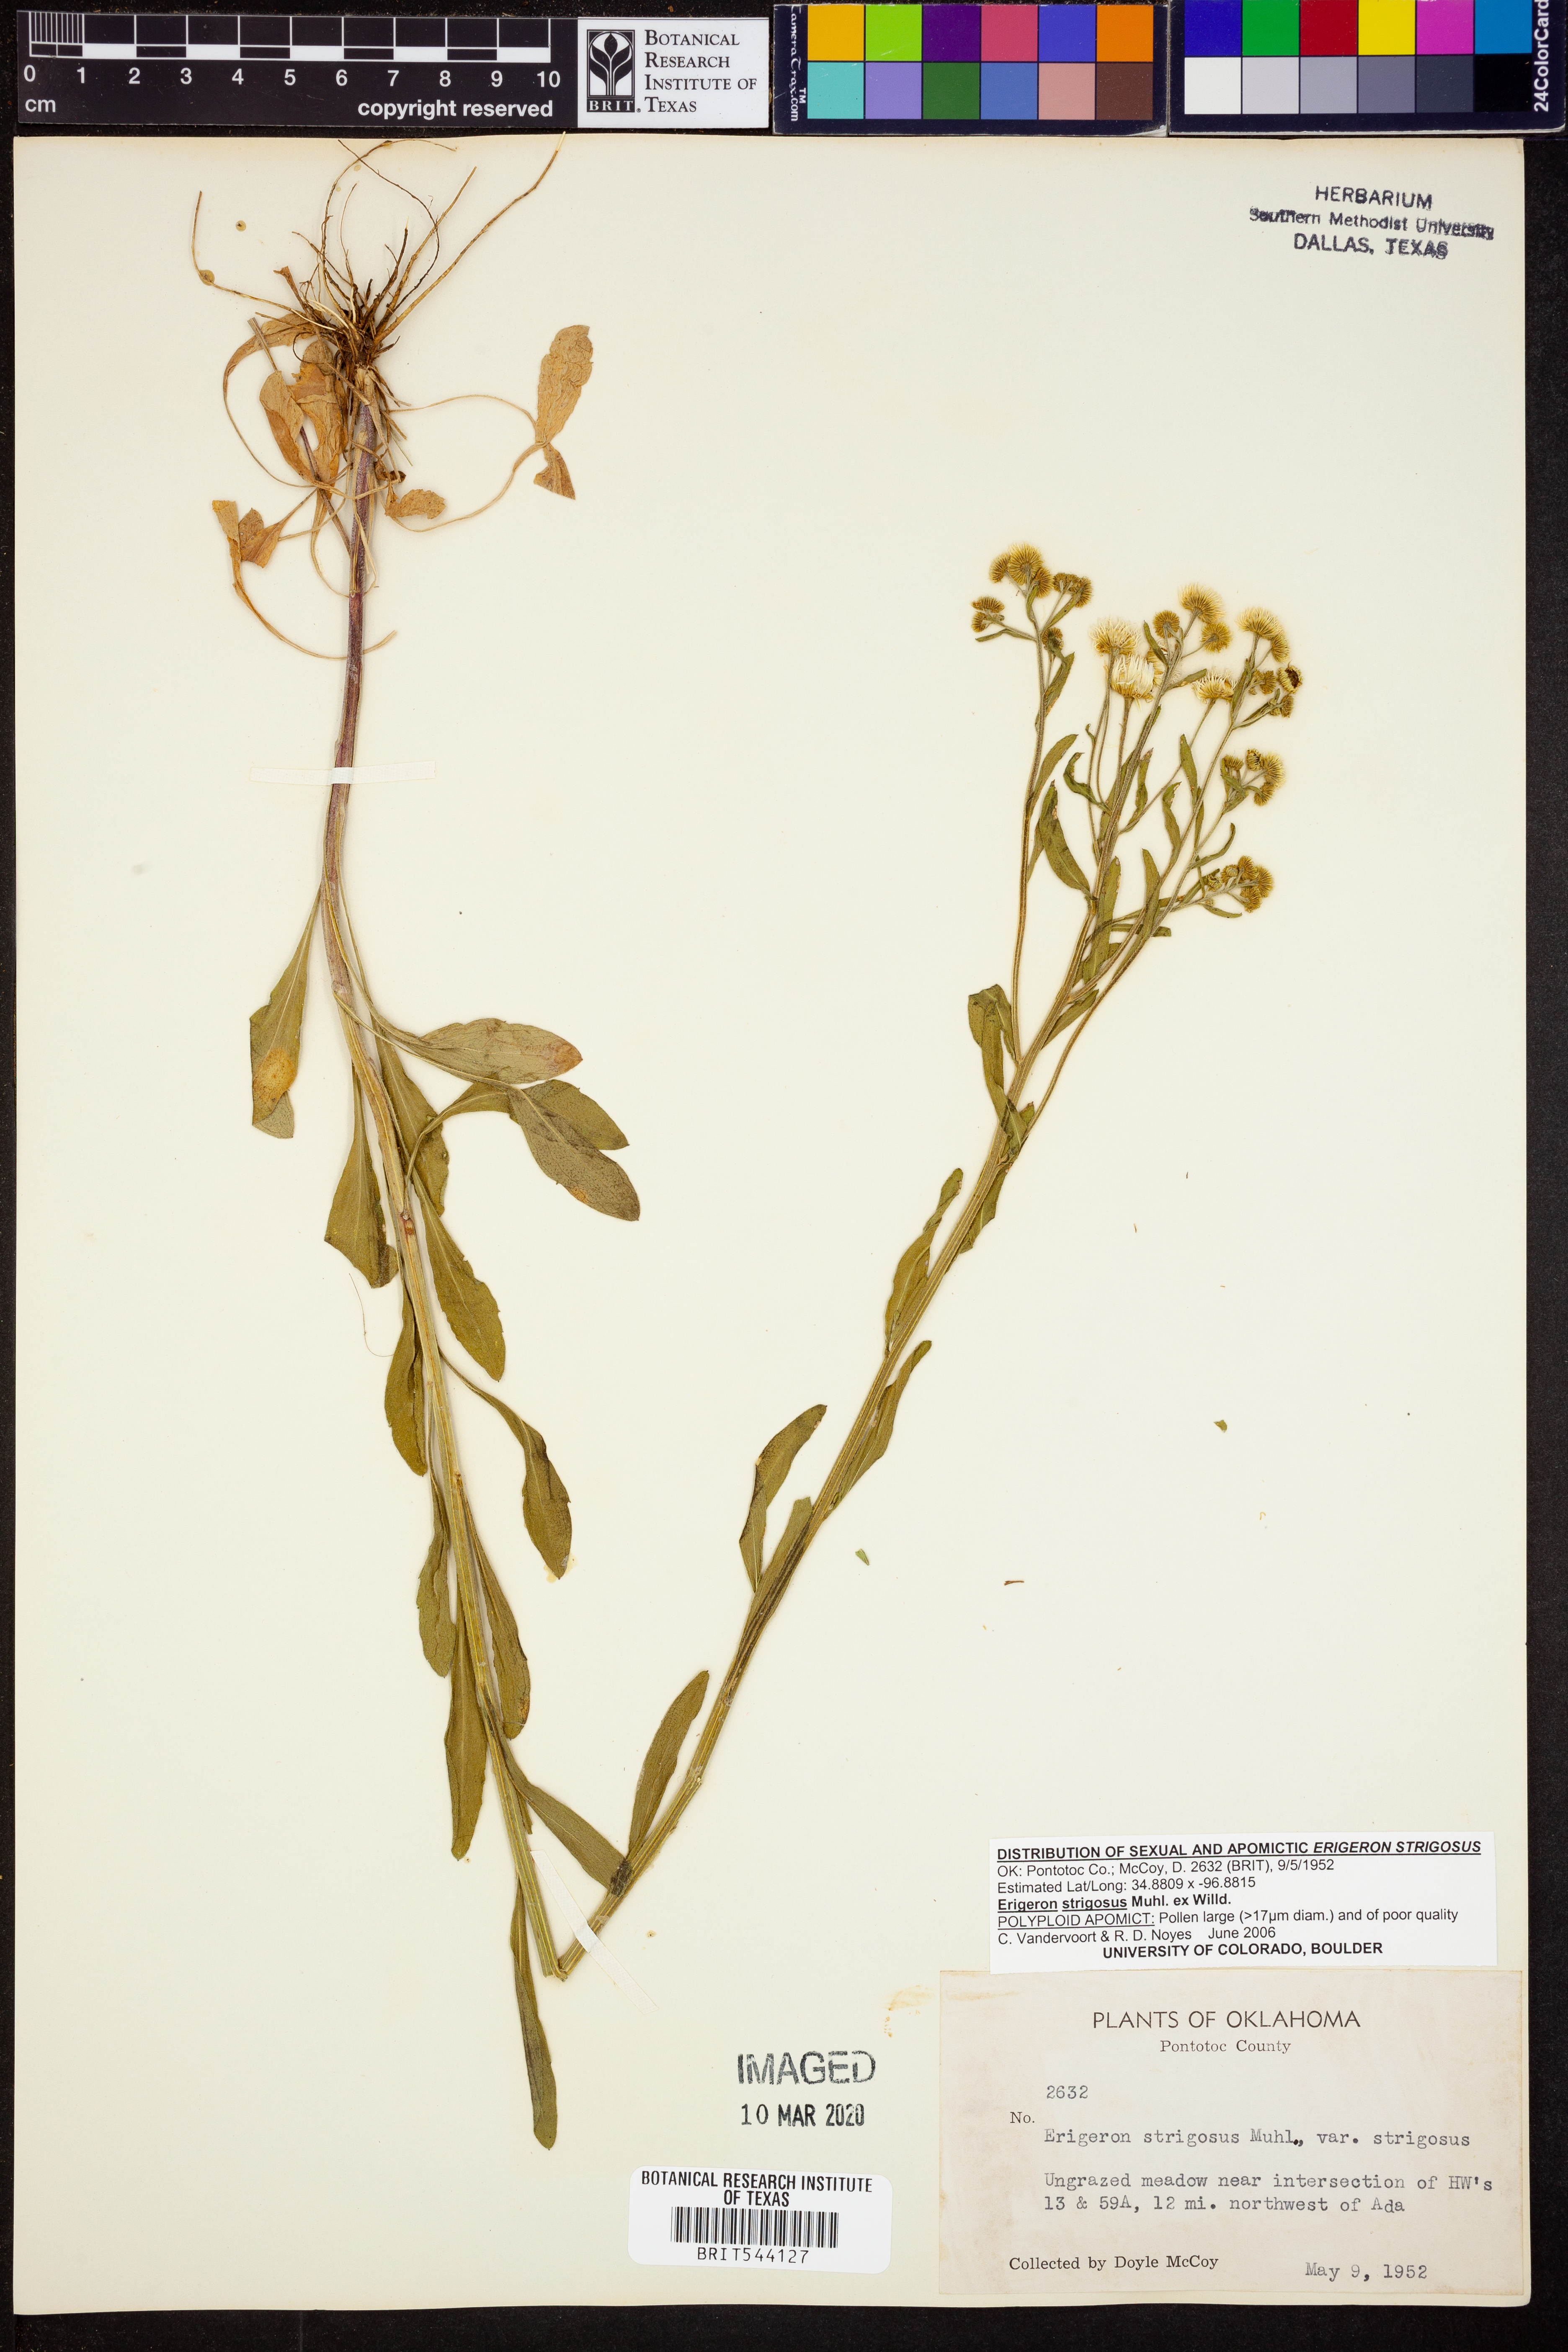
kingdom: Plantae
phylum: Tracheophyta
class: Magnoliopsida
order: Asterales
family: Asteraceae
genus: Erigeron
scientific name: Erigeron strigosus
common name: Common eastern fleabane
